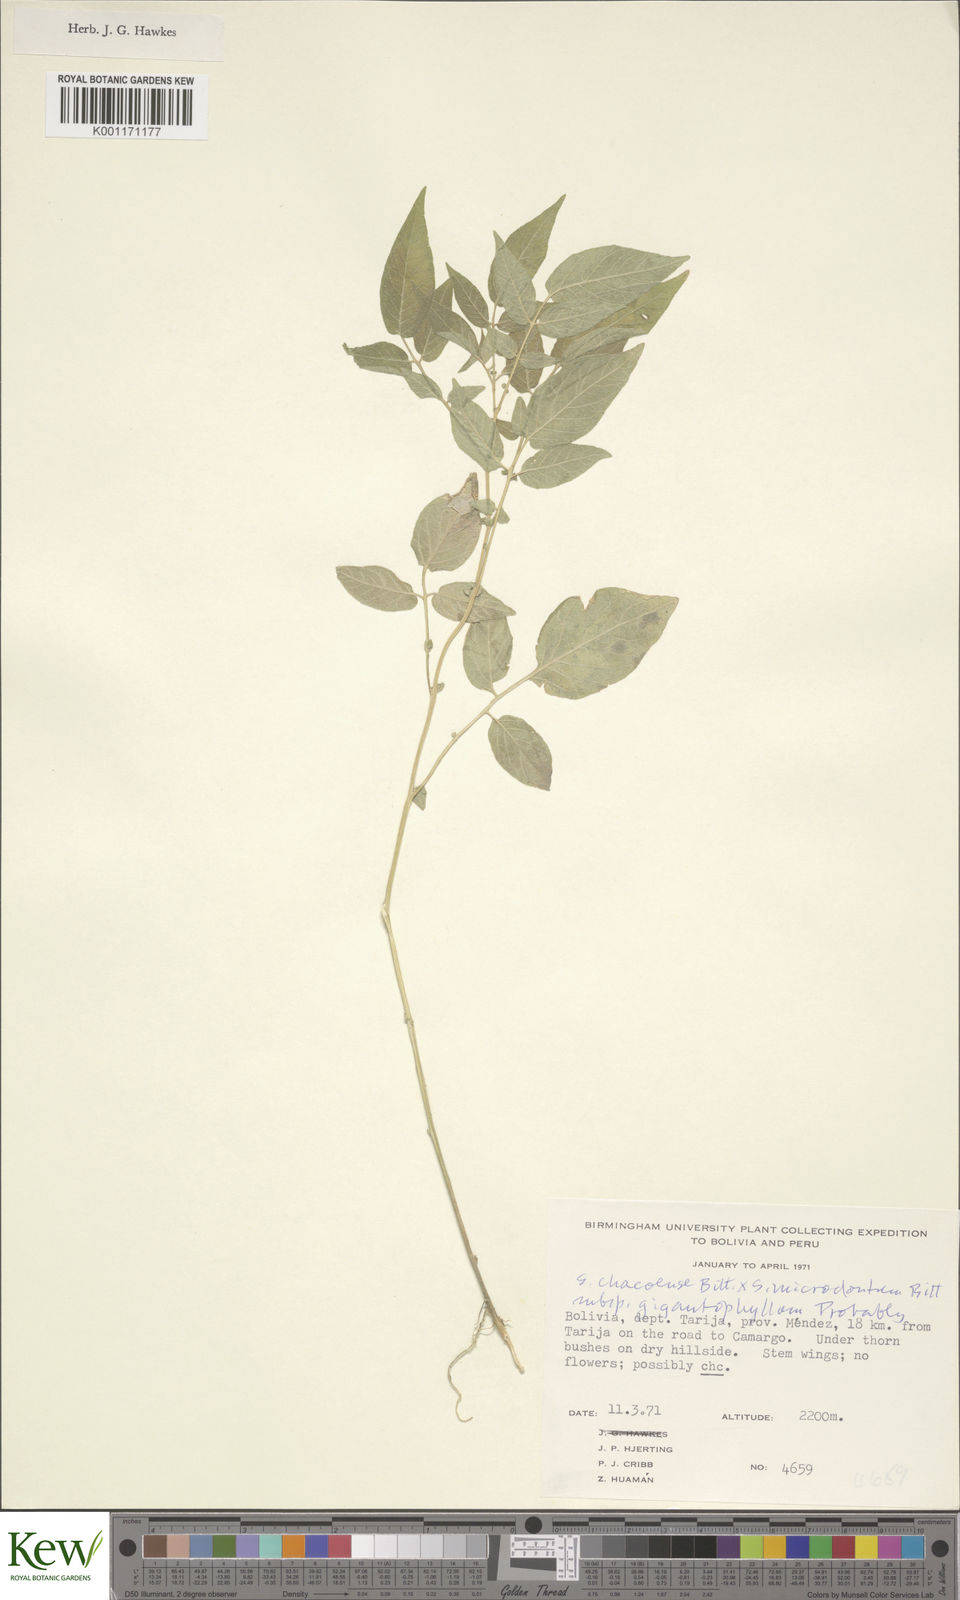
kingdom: Plantae
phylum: Tracheophyta
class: Magnoliopsida
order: Solanales
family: Solanaceae
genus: Solanum
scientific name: Solanum microdontum
